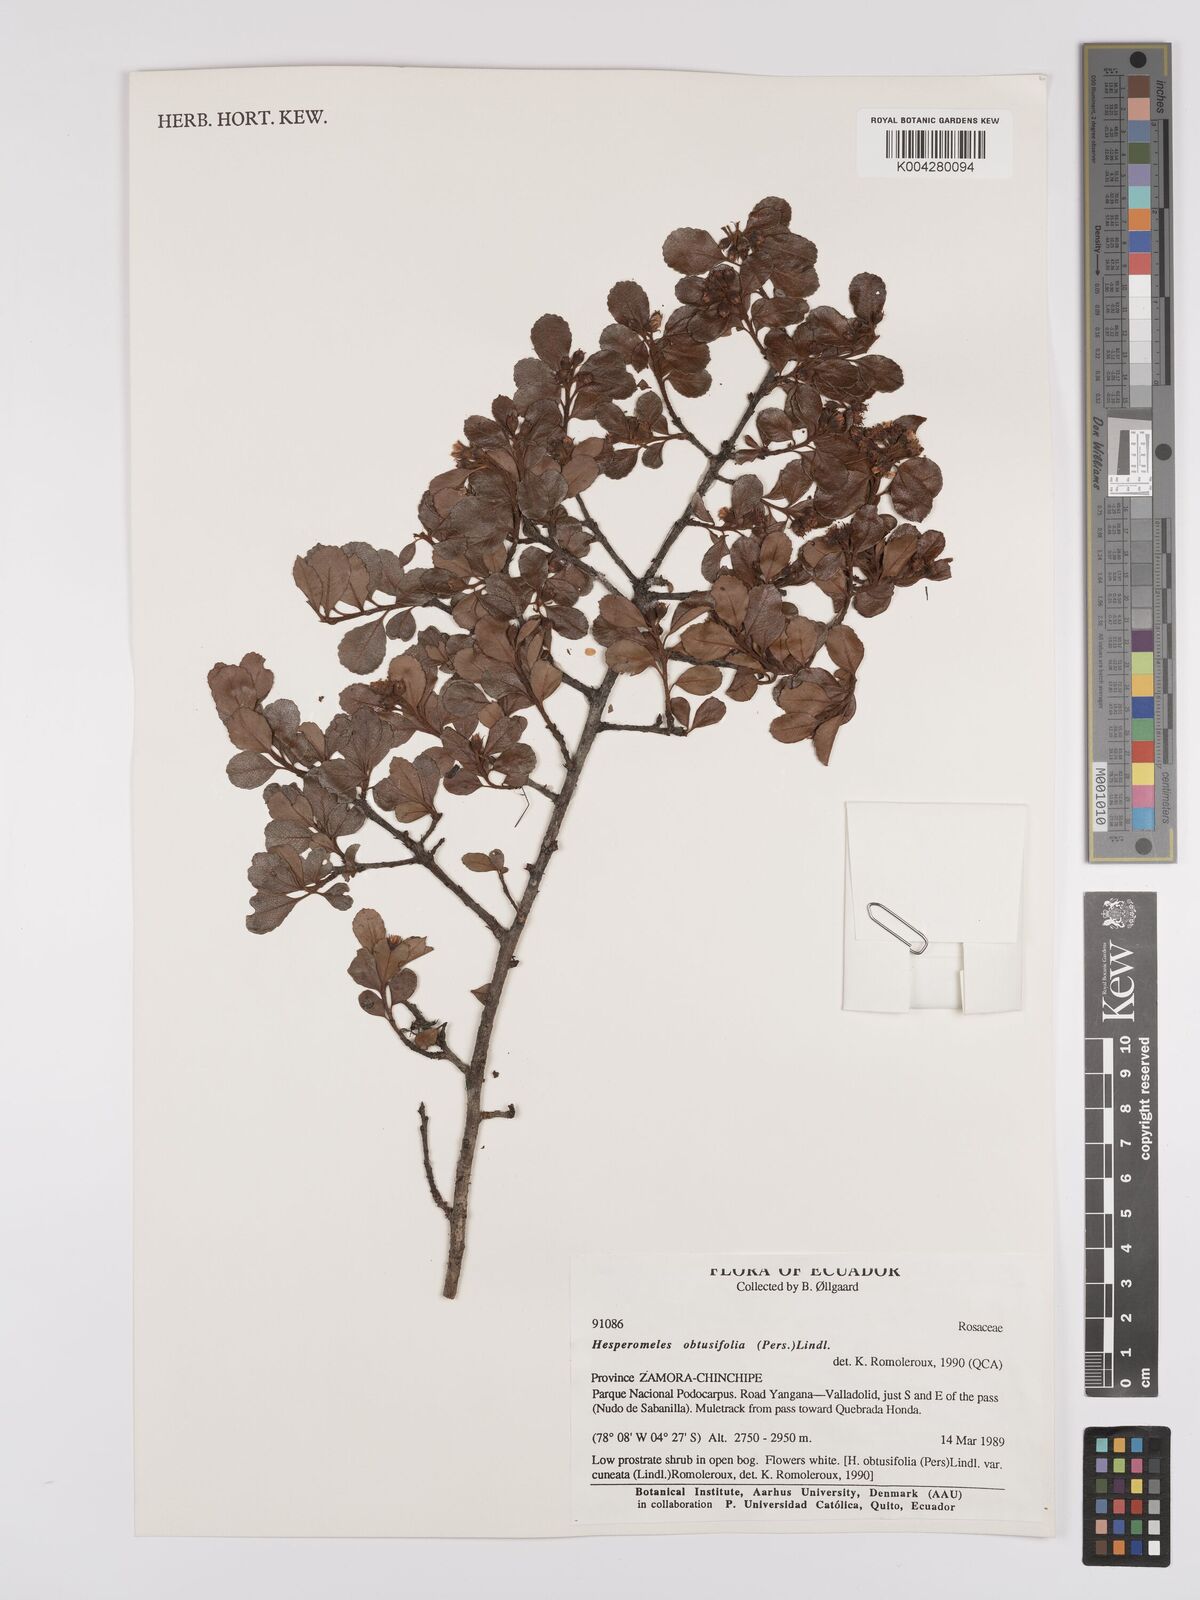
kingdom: Plantae
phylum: Tracheophyta
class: Magnoliopsida
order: Rosales
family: Rosaceae
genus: Hesperomeles
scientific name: Hesperomeles obtusifolia
